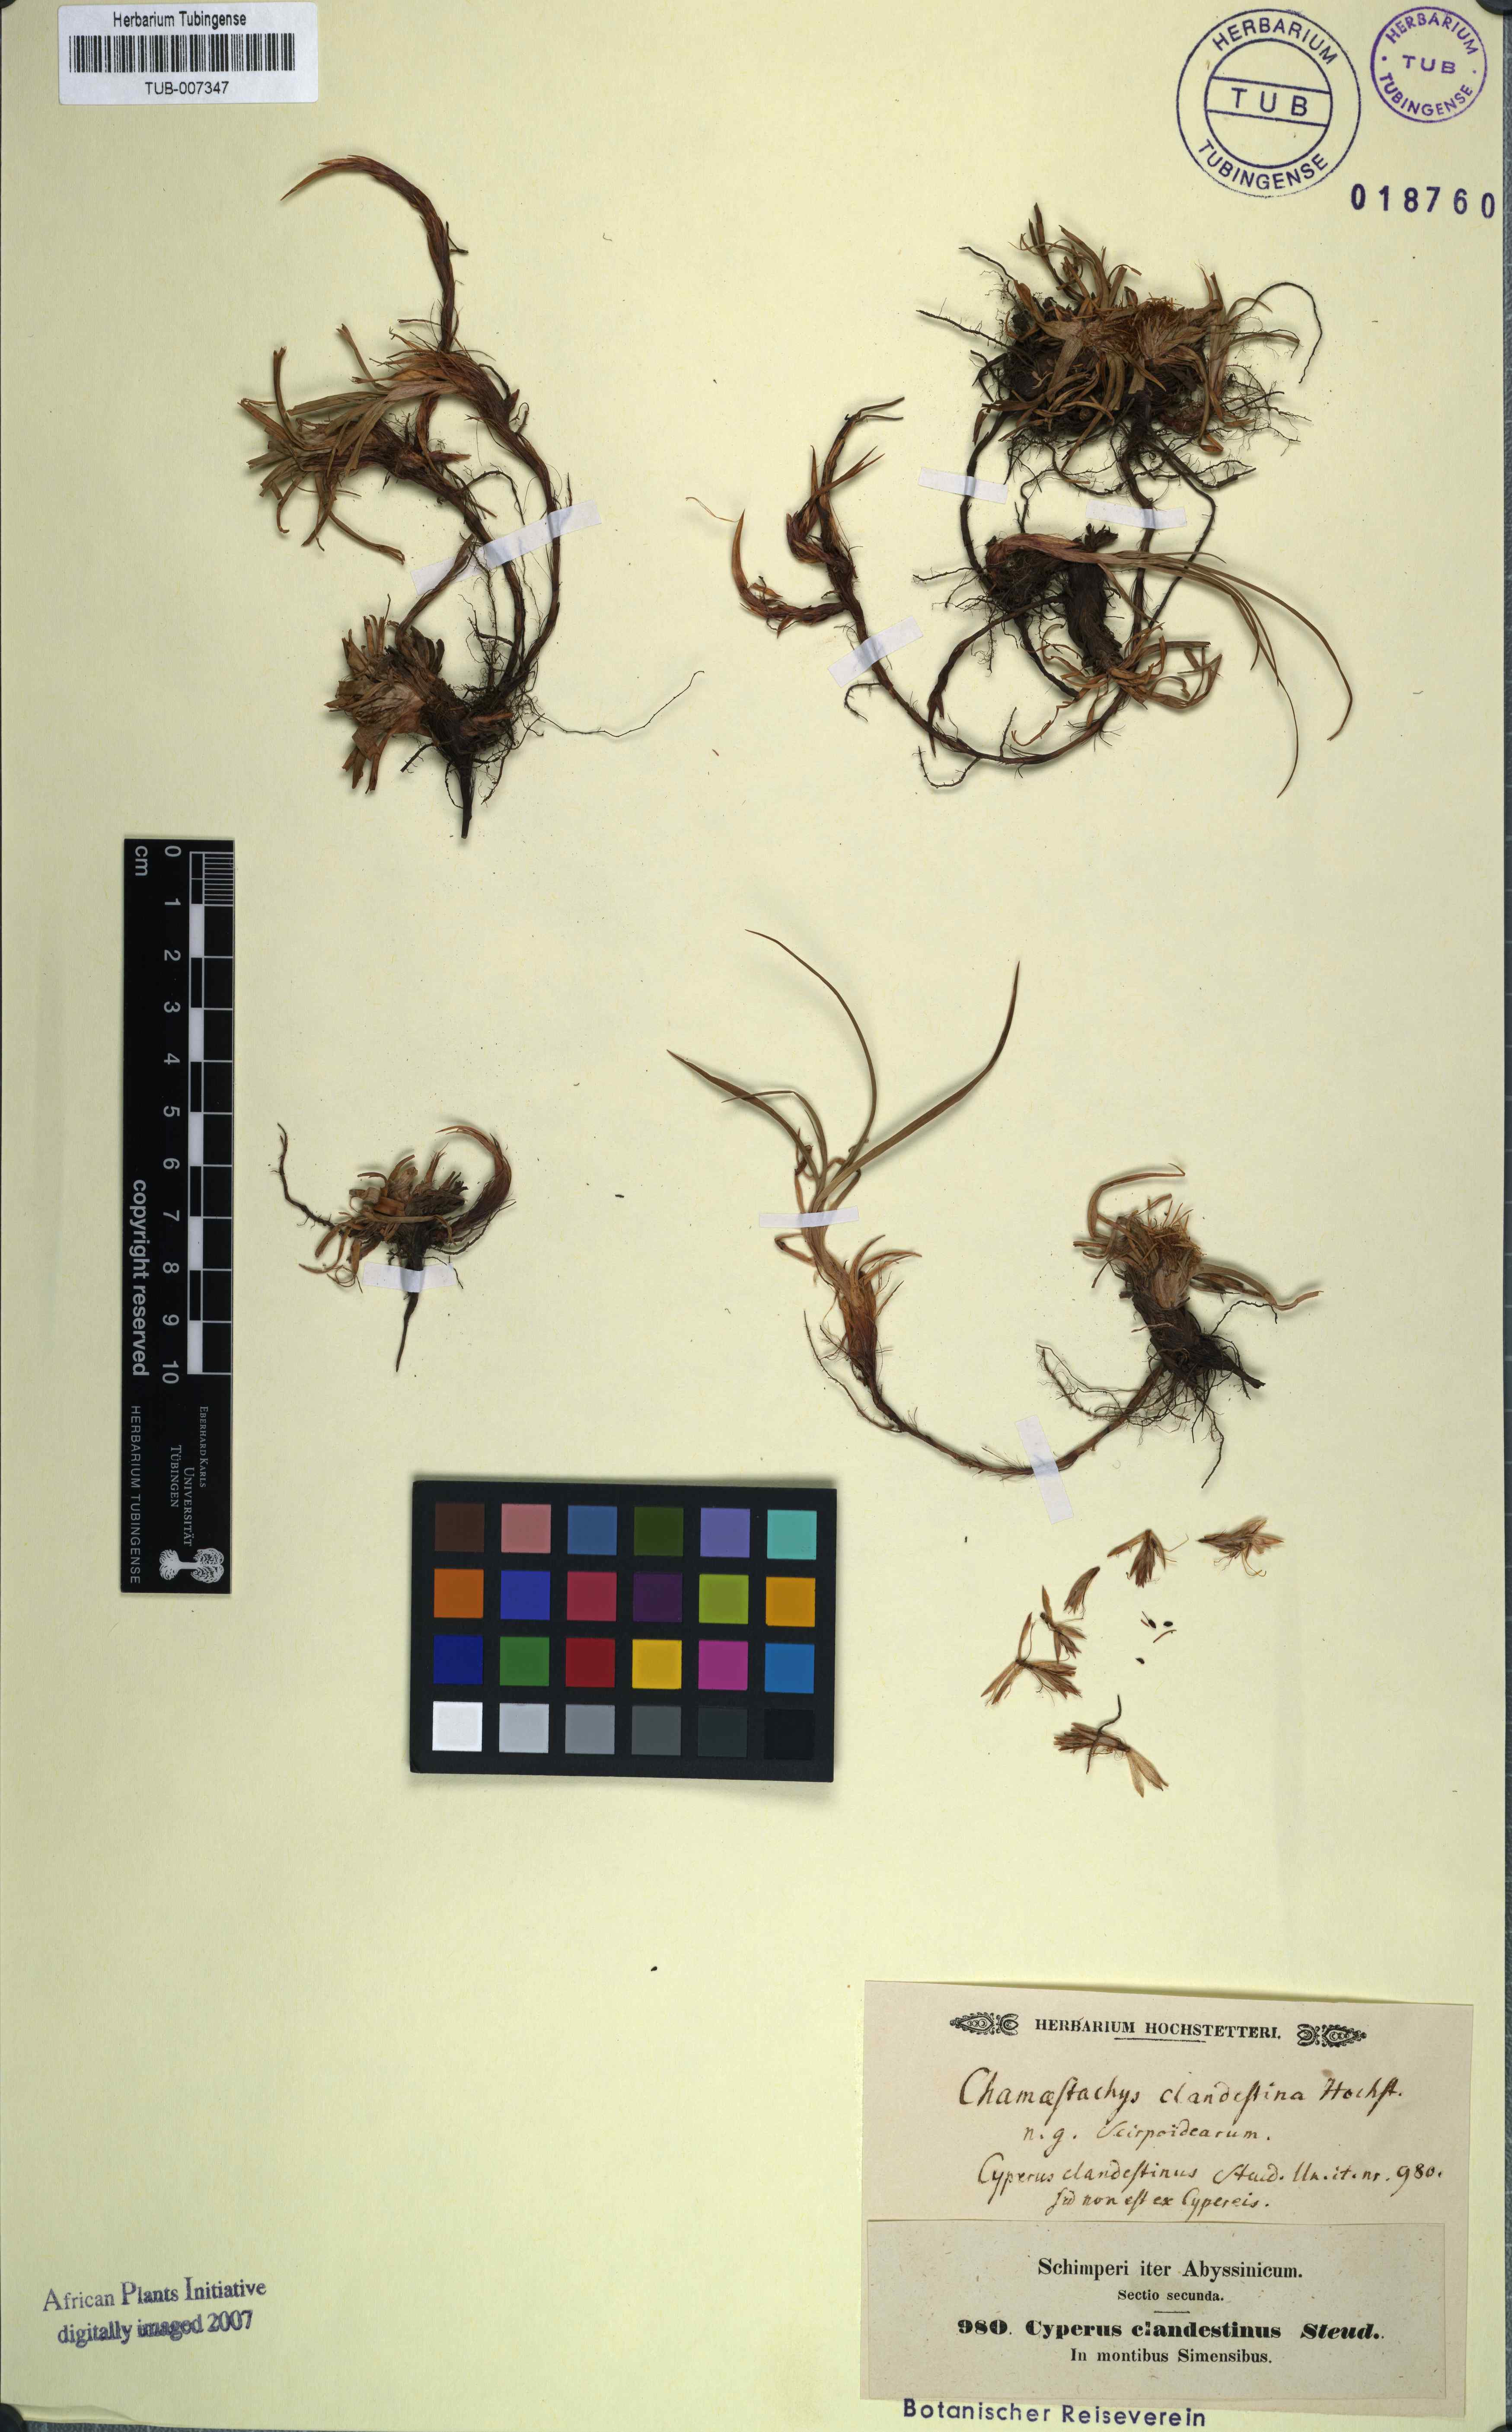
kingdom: Plantae
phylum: Tracheophyta
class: Liliopsida
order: Poales
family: Cyperaceae
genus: Cyperus
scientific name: Cyperus clandestinus
